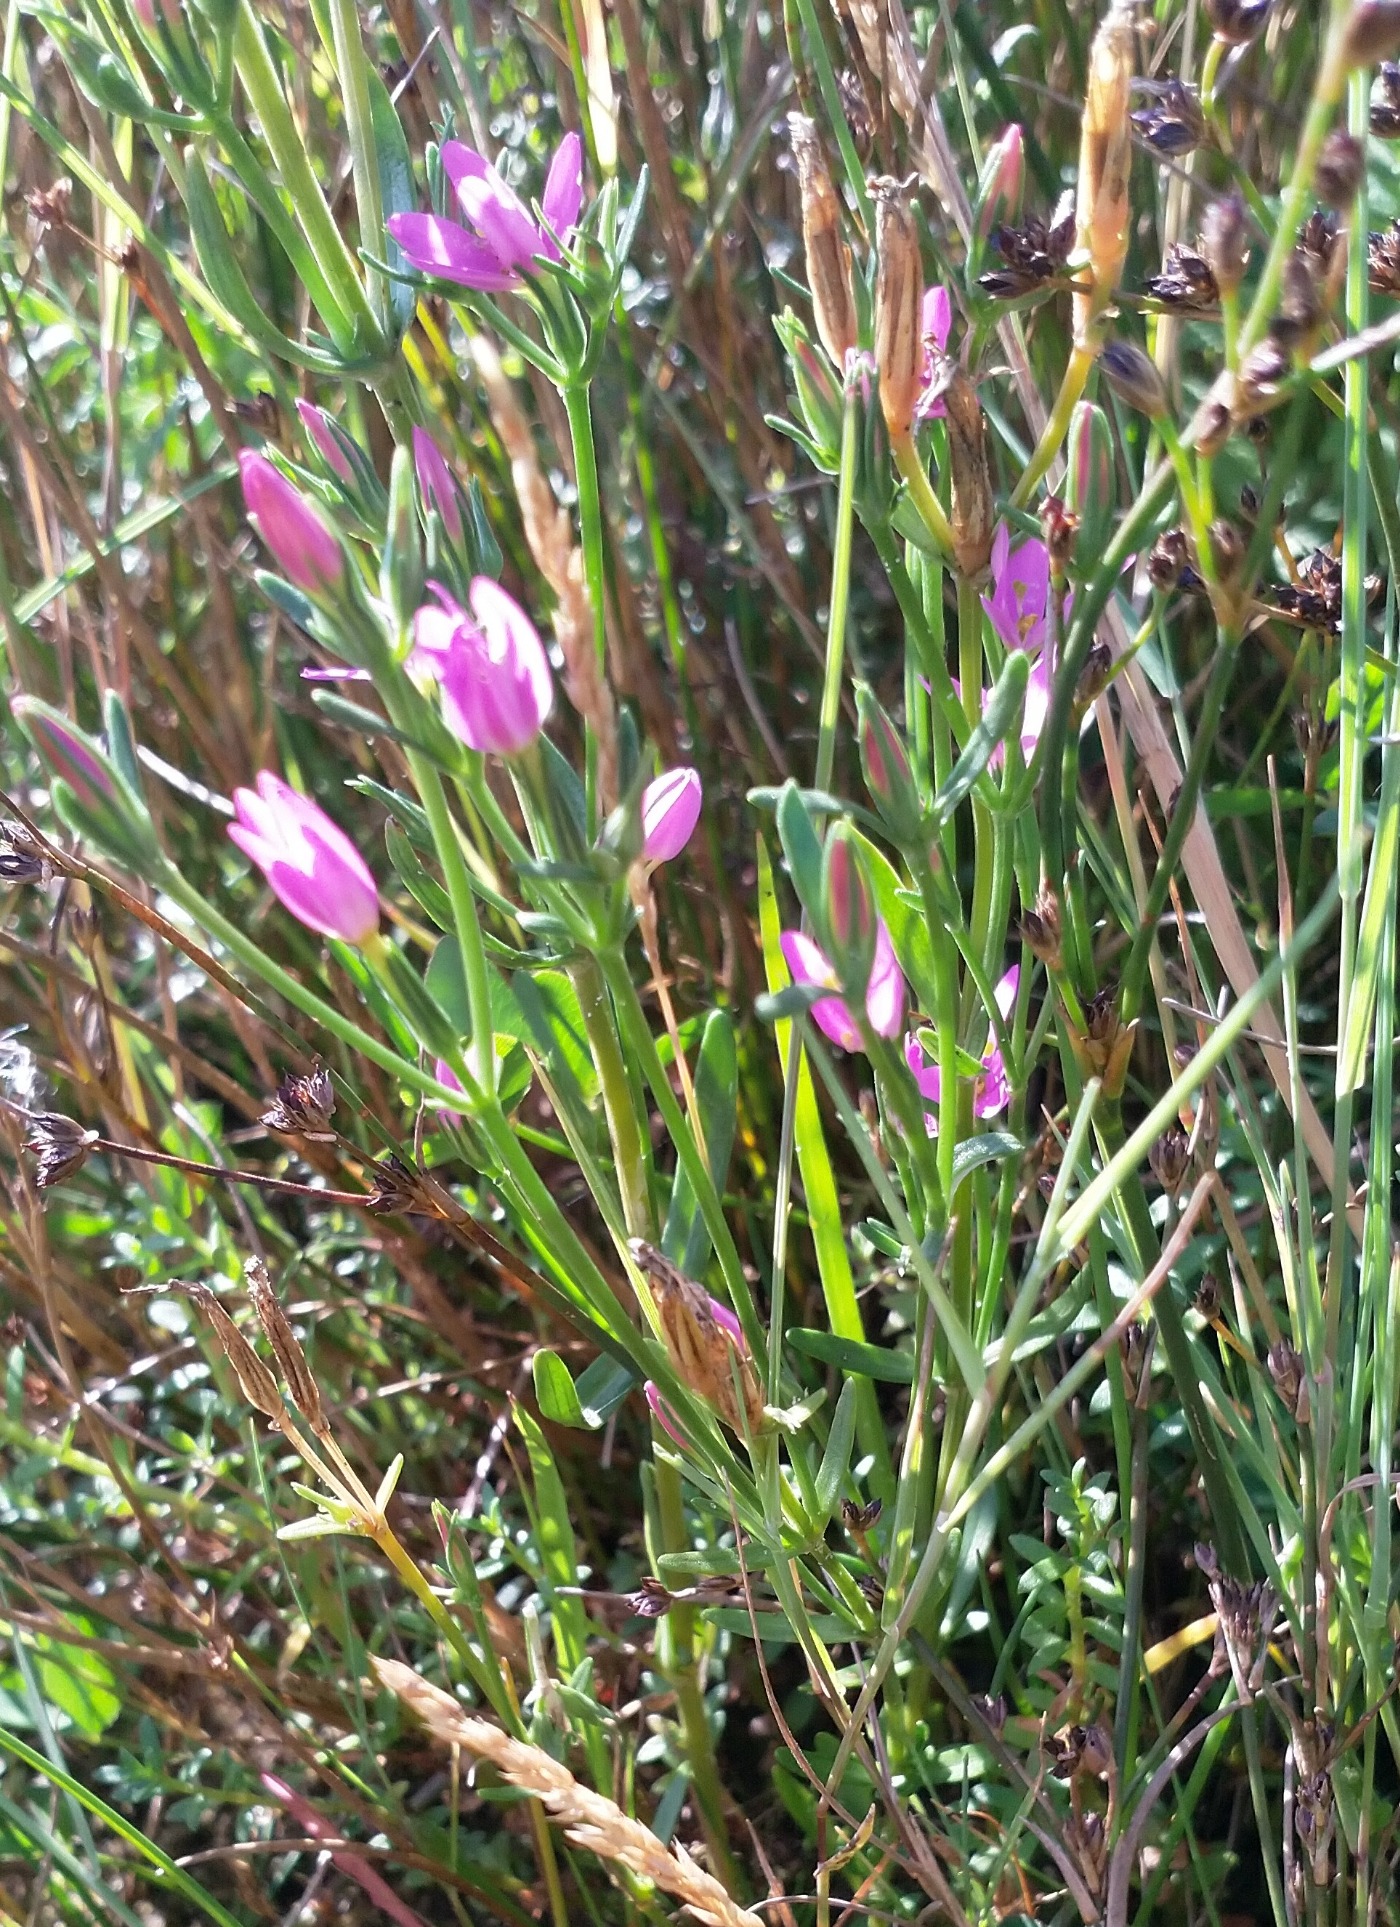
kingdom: Plantae
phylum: Tracheophyta
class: Magnoliopsida
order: Gentianales
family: Gentianaceae
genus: Centaurium
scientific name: Centaurium littorale
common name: Strand-tusindgylden
